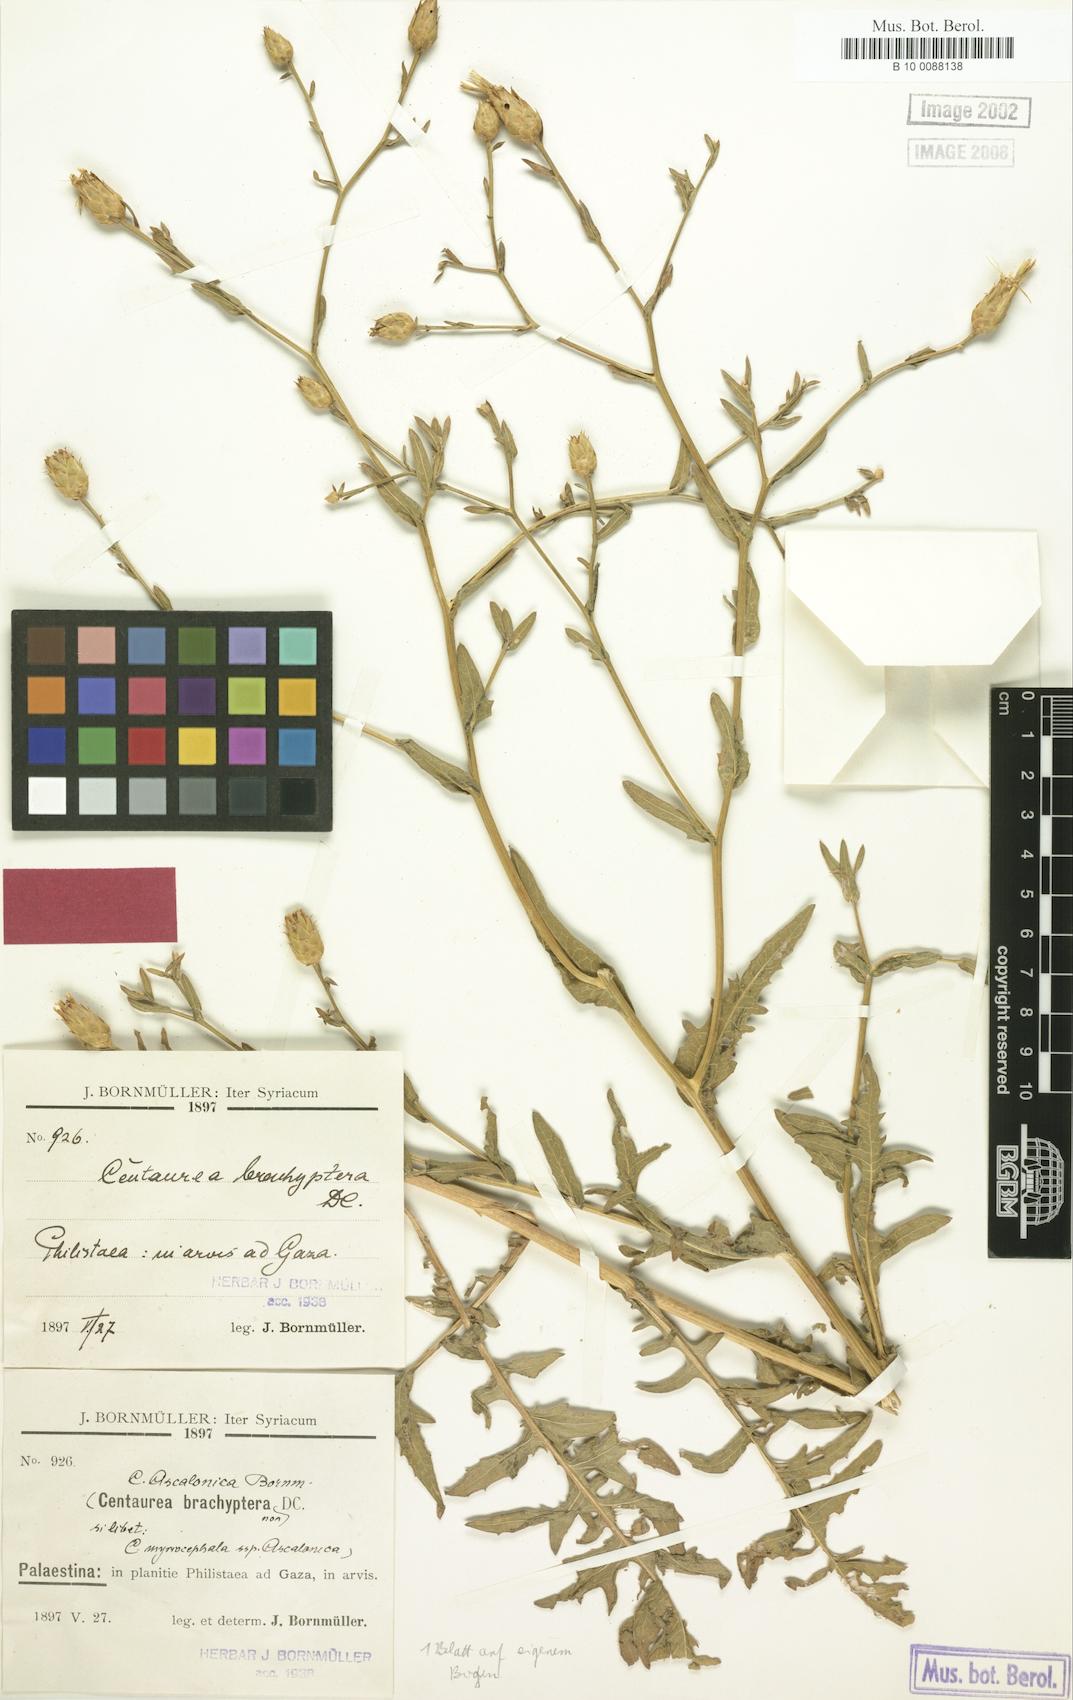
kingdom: Plantae
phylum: Tracheophyta
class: Magnoliopsida
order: Asterales
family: Asteraceae
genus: Centaurea
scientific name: Centaurea ascalonica
